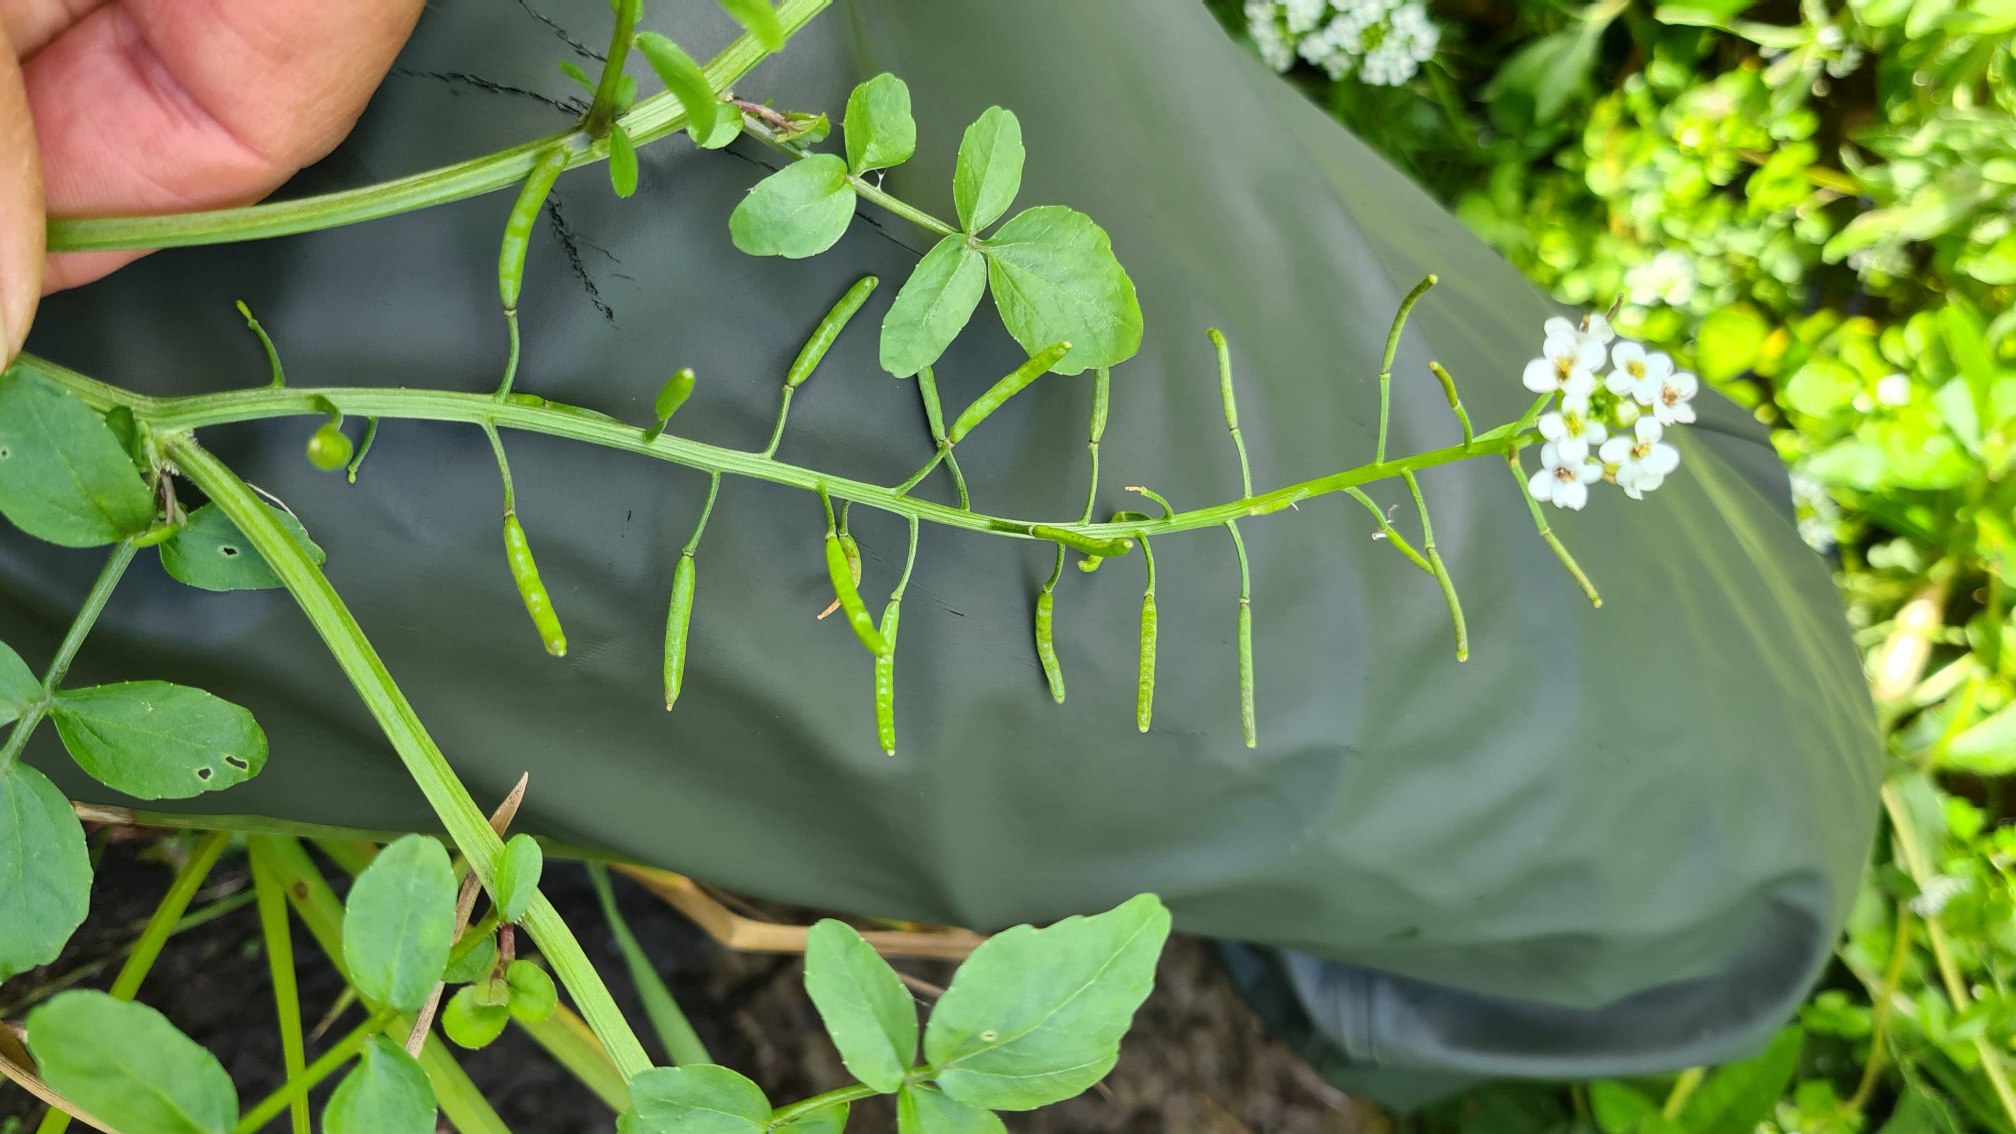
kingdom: Plantae
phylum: Tracheophyta
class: Magnoliopsida
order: Brassicales
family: Brassicaceae
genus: Nasturtium
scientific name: Nasturtium officinale
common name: Tykskulpet brøndkarse
